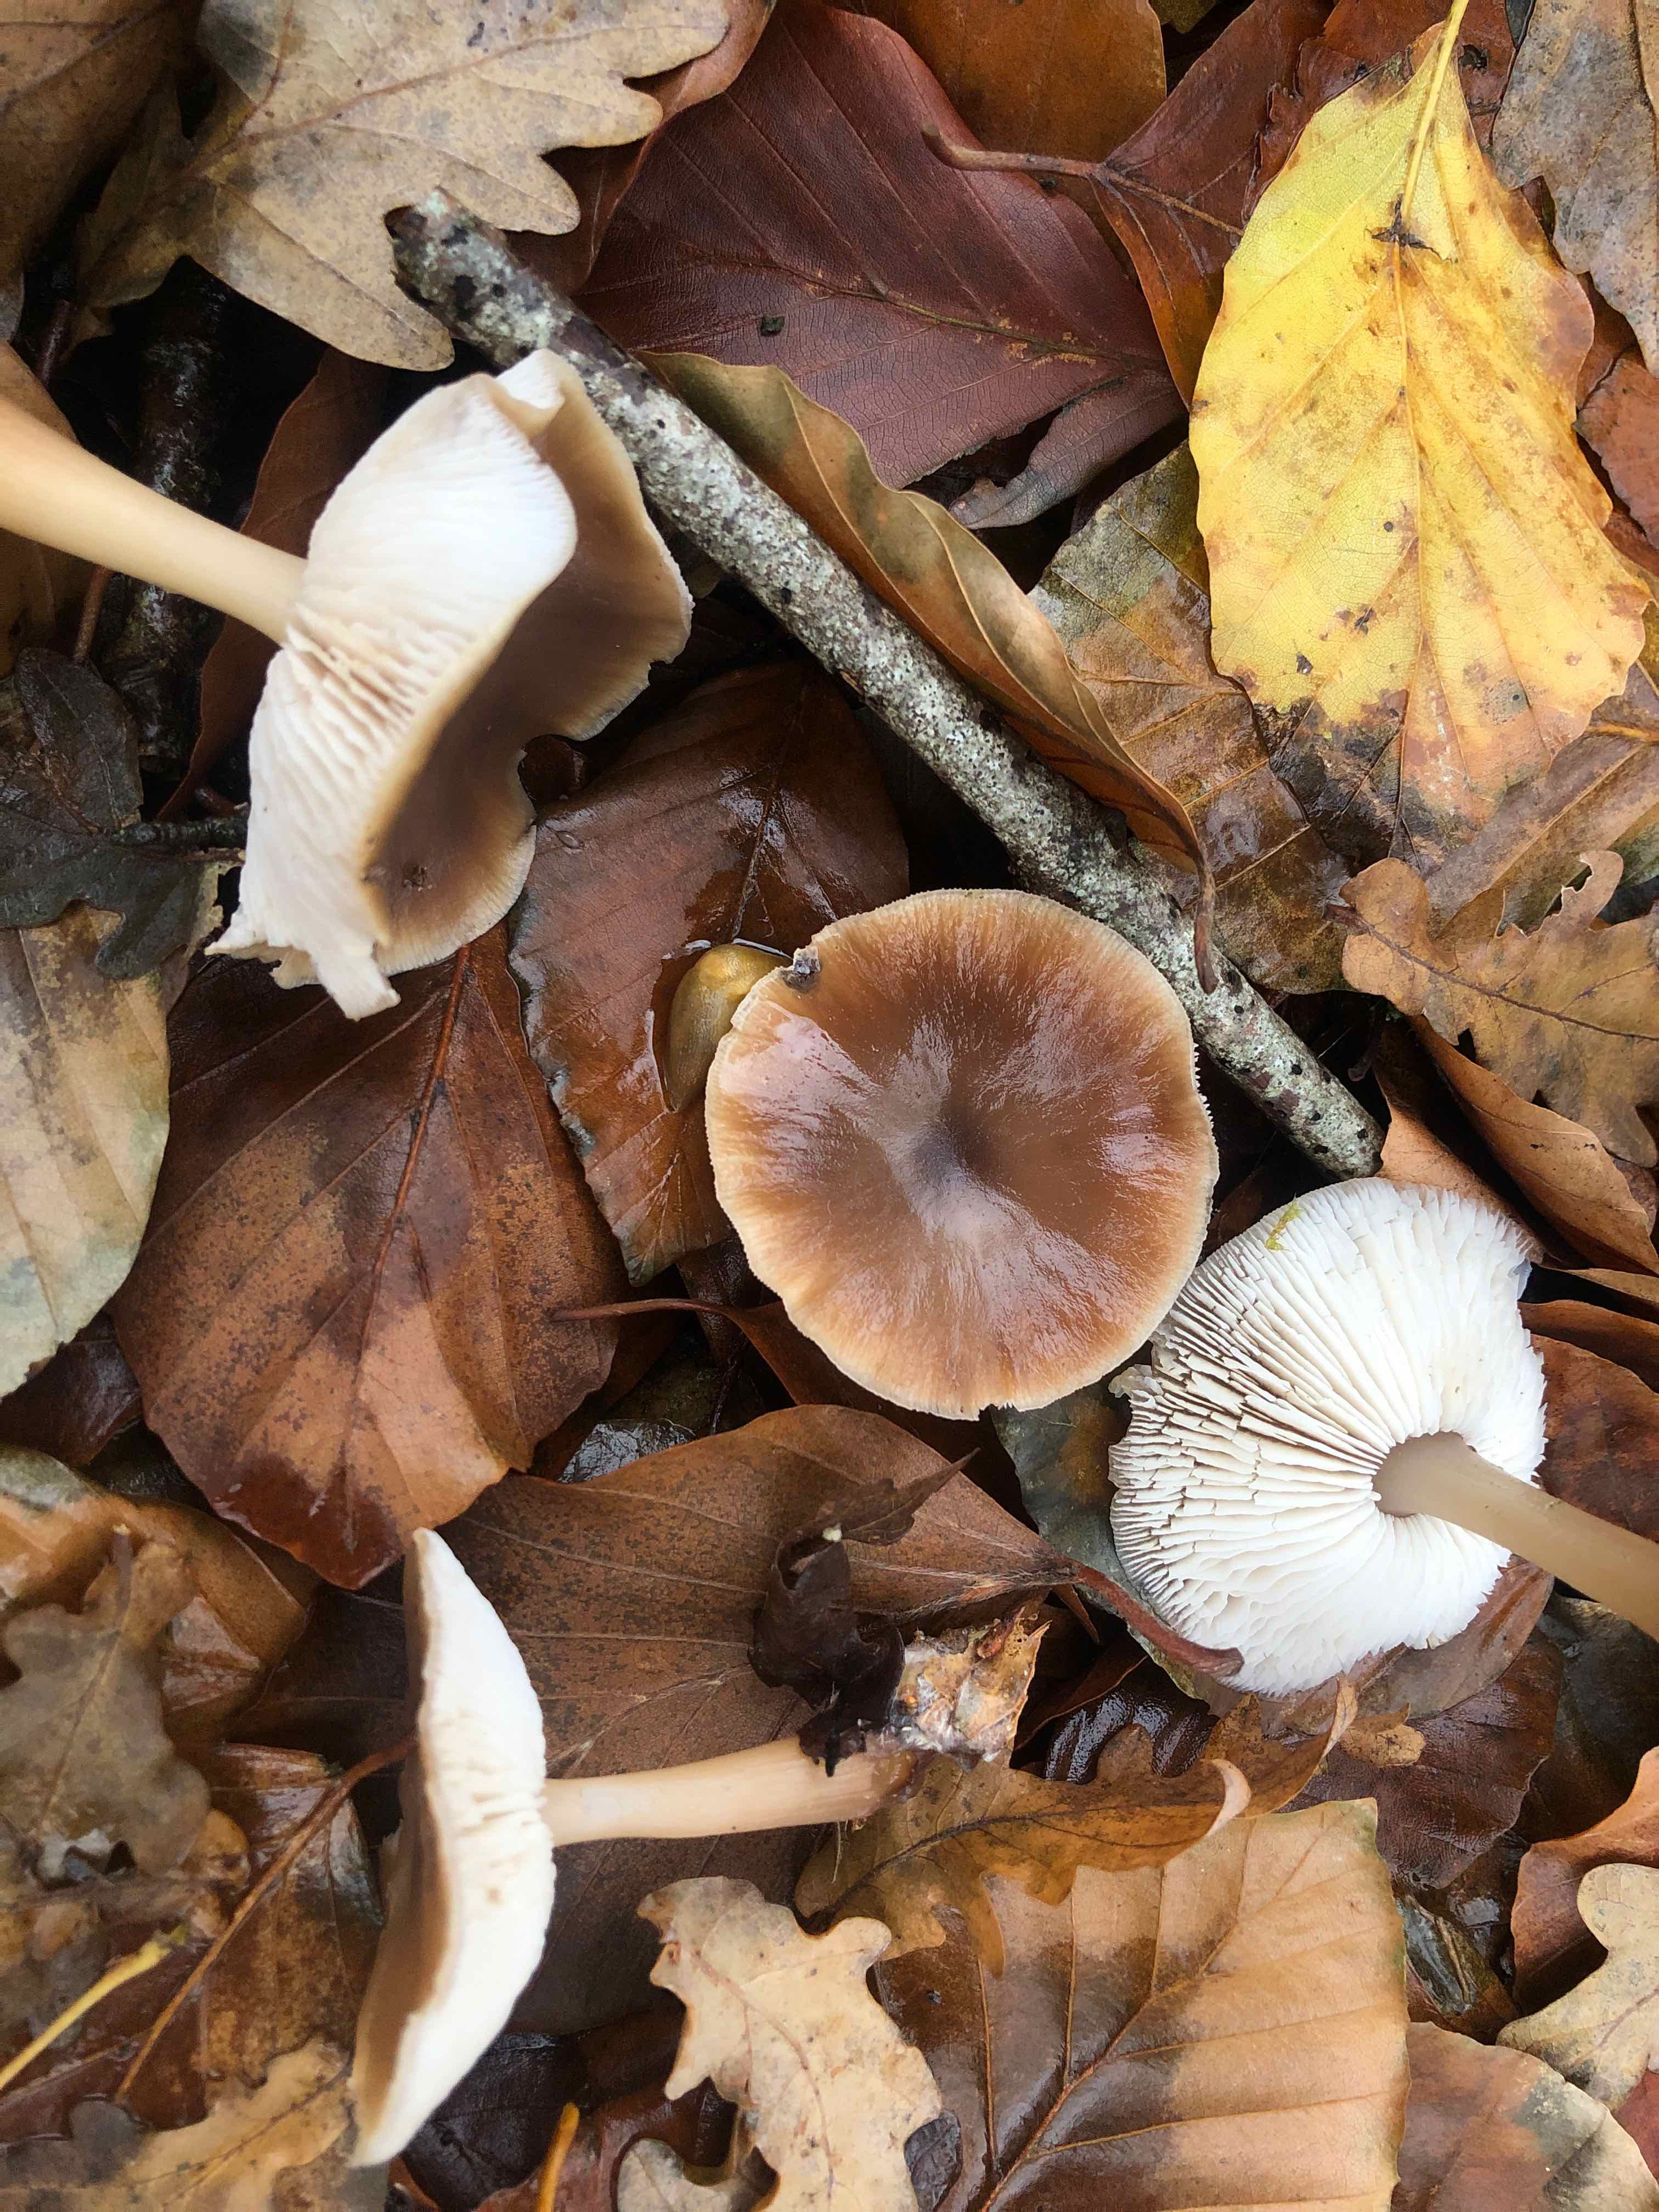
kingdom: Fungi
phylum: Basidiomycota
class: Agaricomycetes
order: Agaricales
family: Omphalotaceae
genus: Rhodocollybia
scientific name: Rhodocollybia asema
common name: horngrå fladhat
